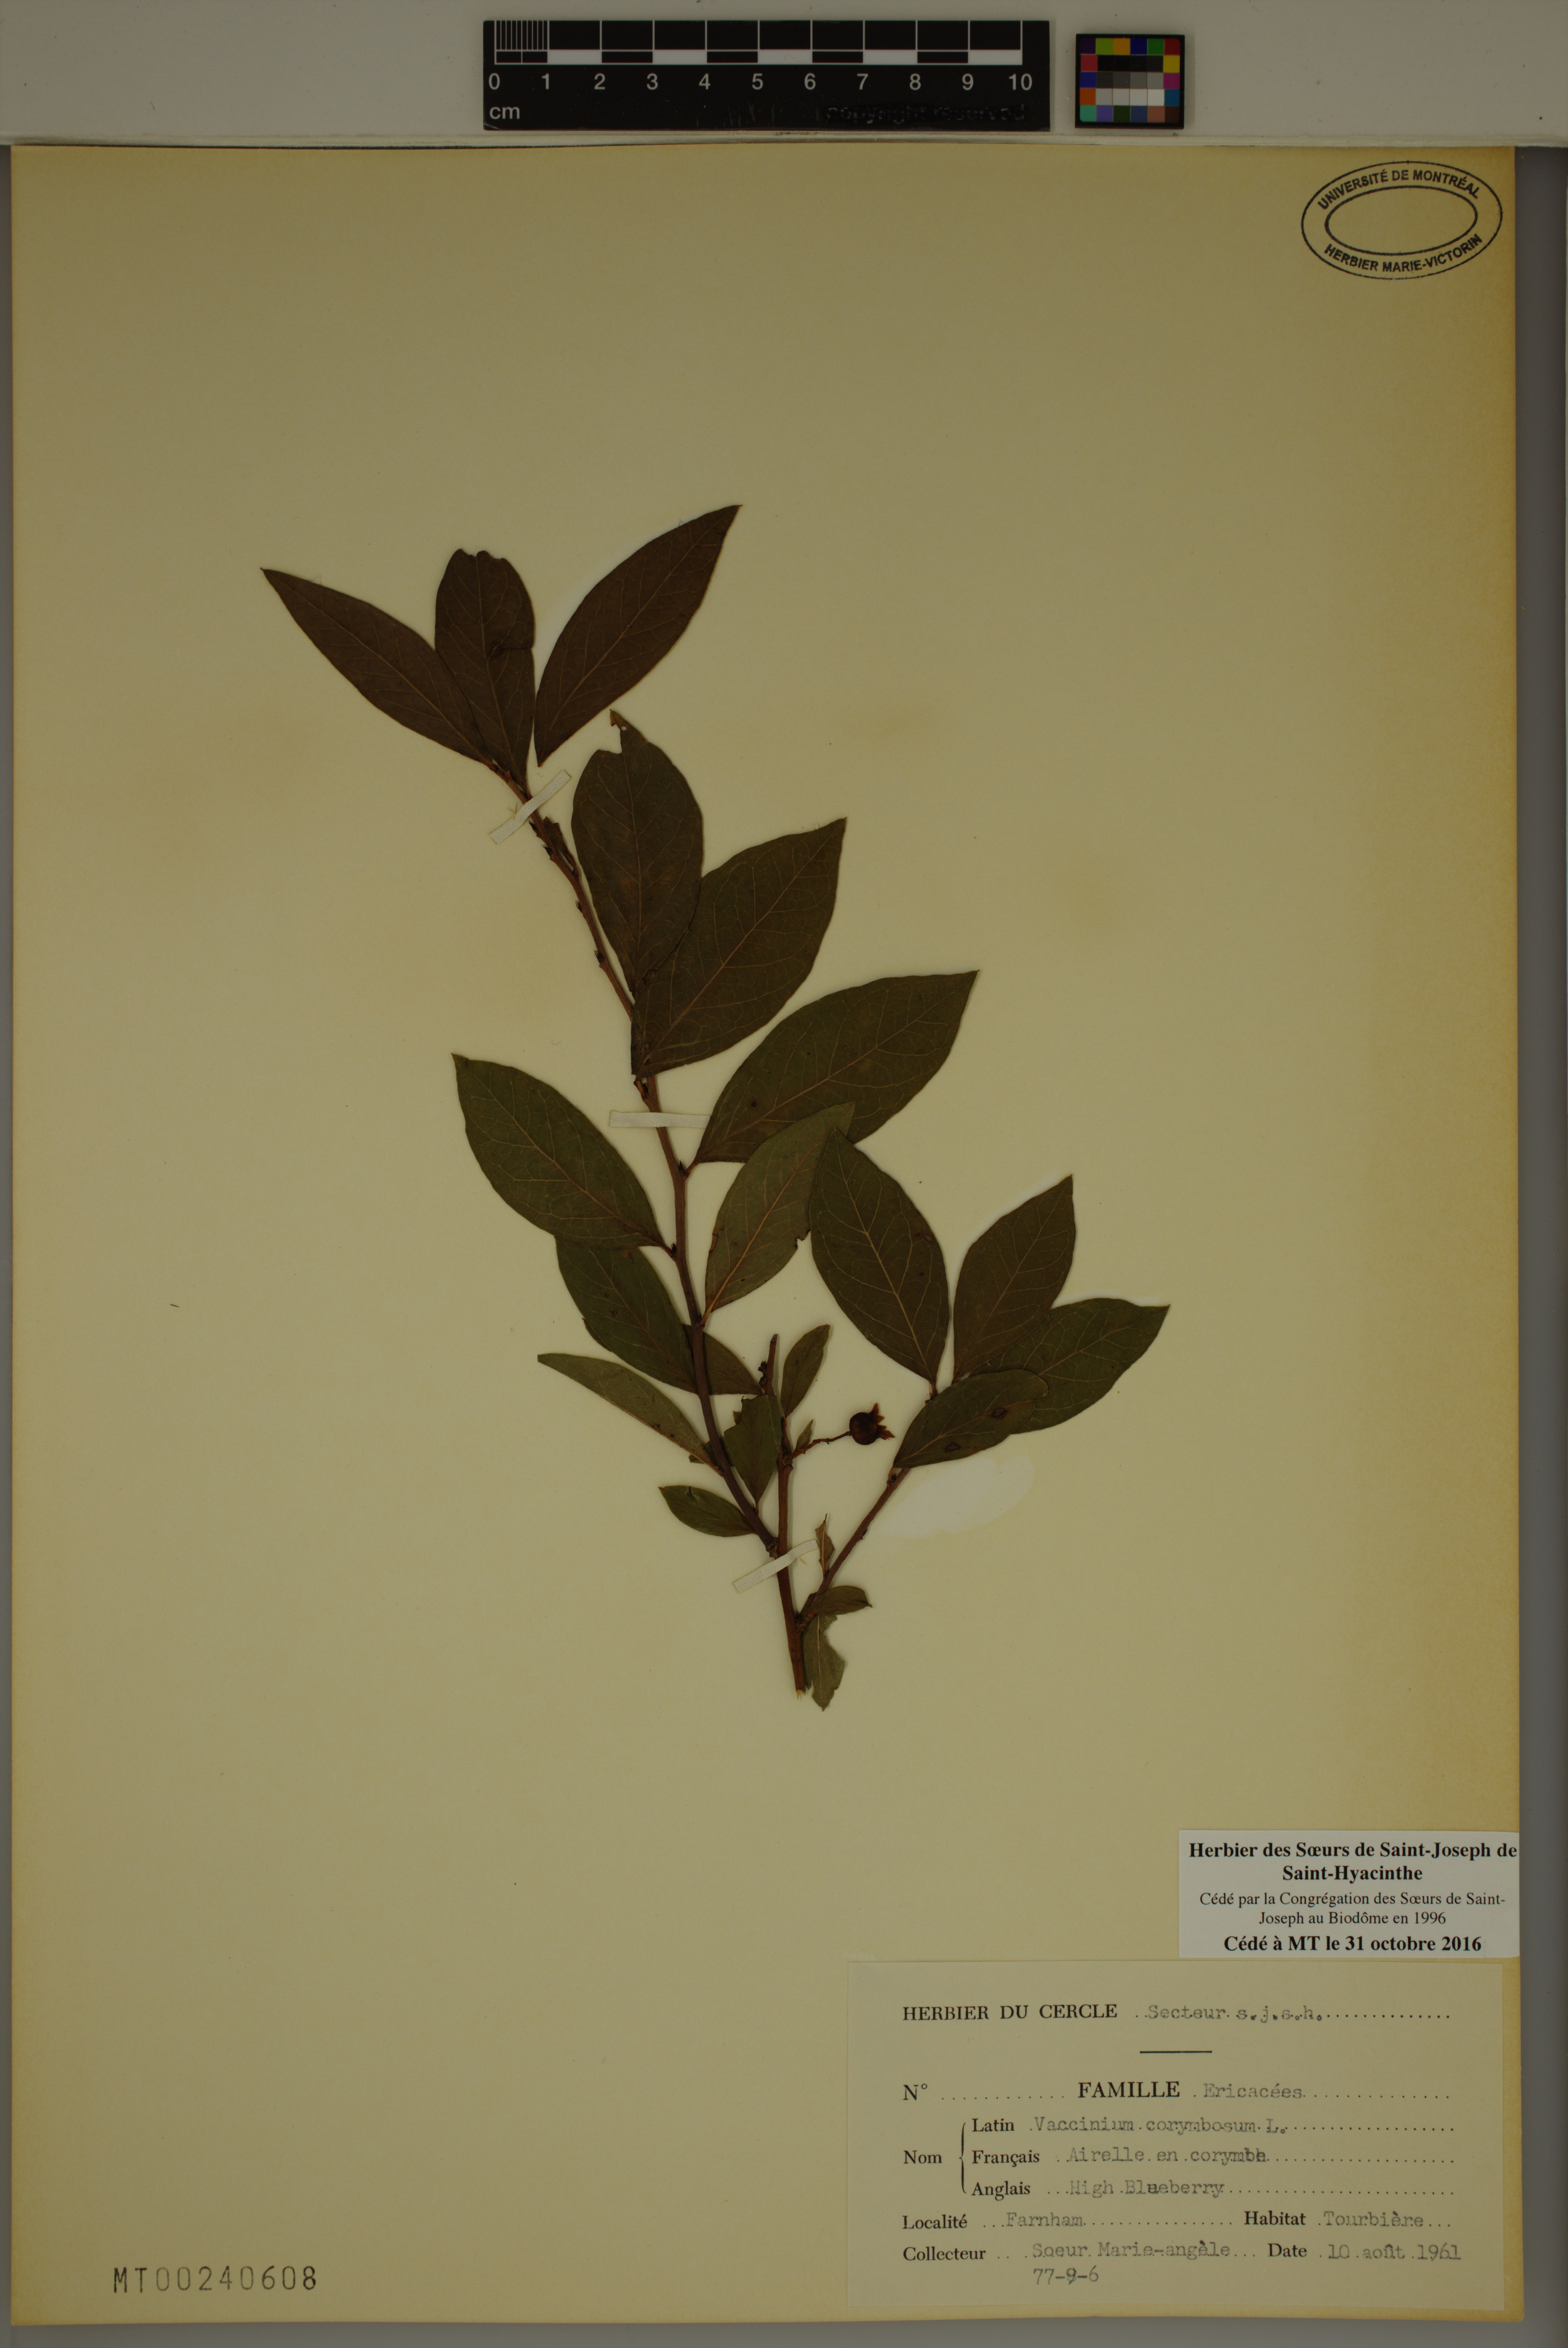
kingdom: Plantae
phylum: Tracheophyta
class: Magnoliopsida
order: Ericales
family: Ericaceae
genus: Vaccinium
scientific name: Vaccinium corymbosum
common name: Blueberry
